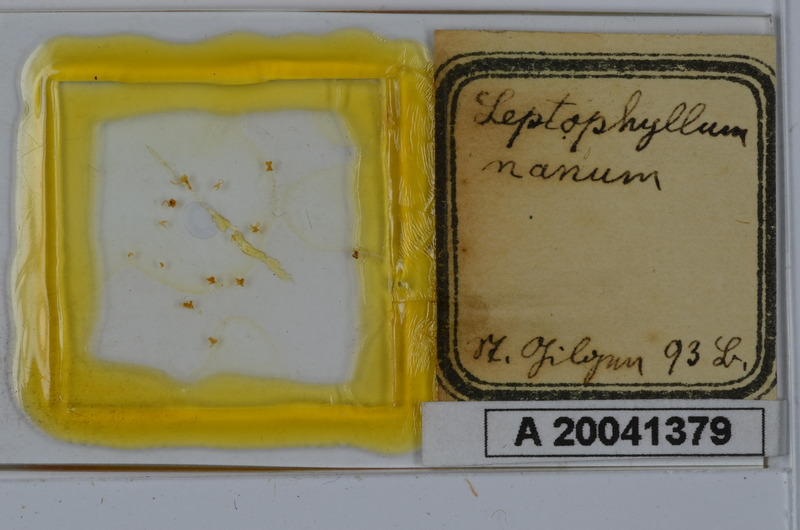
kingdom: Animalia
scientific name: Animalia
